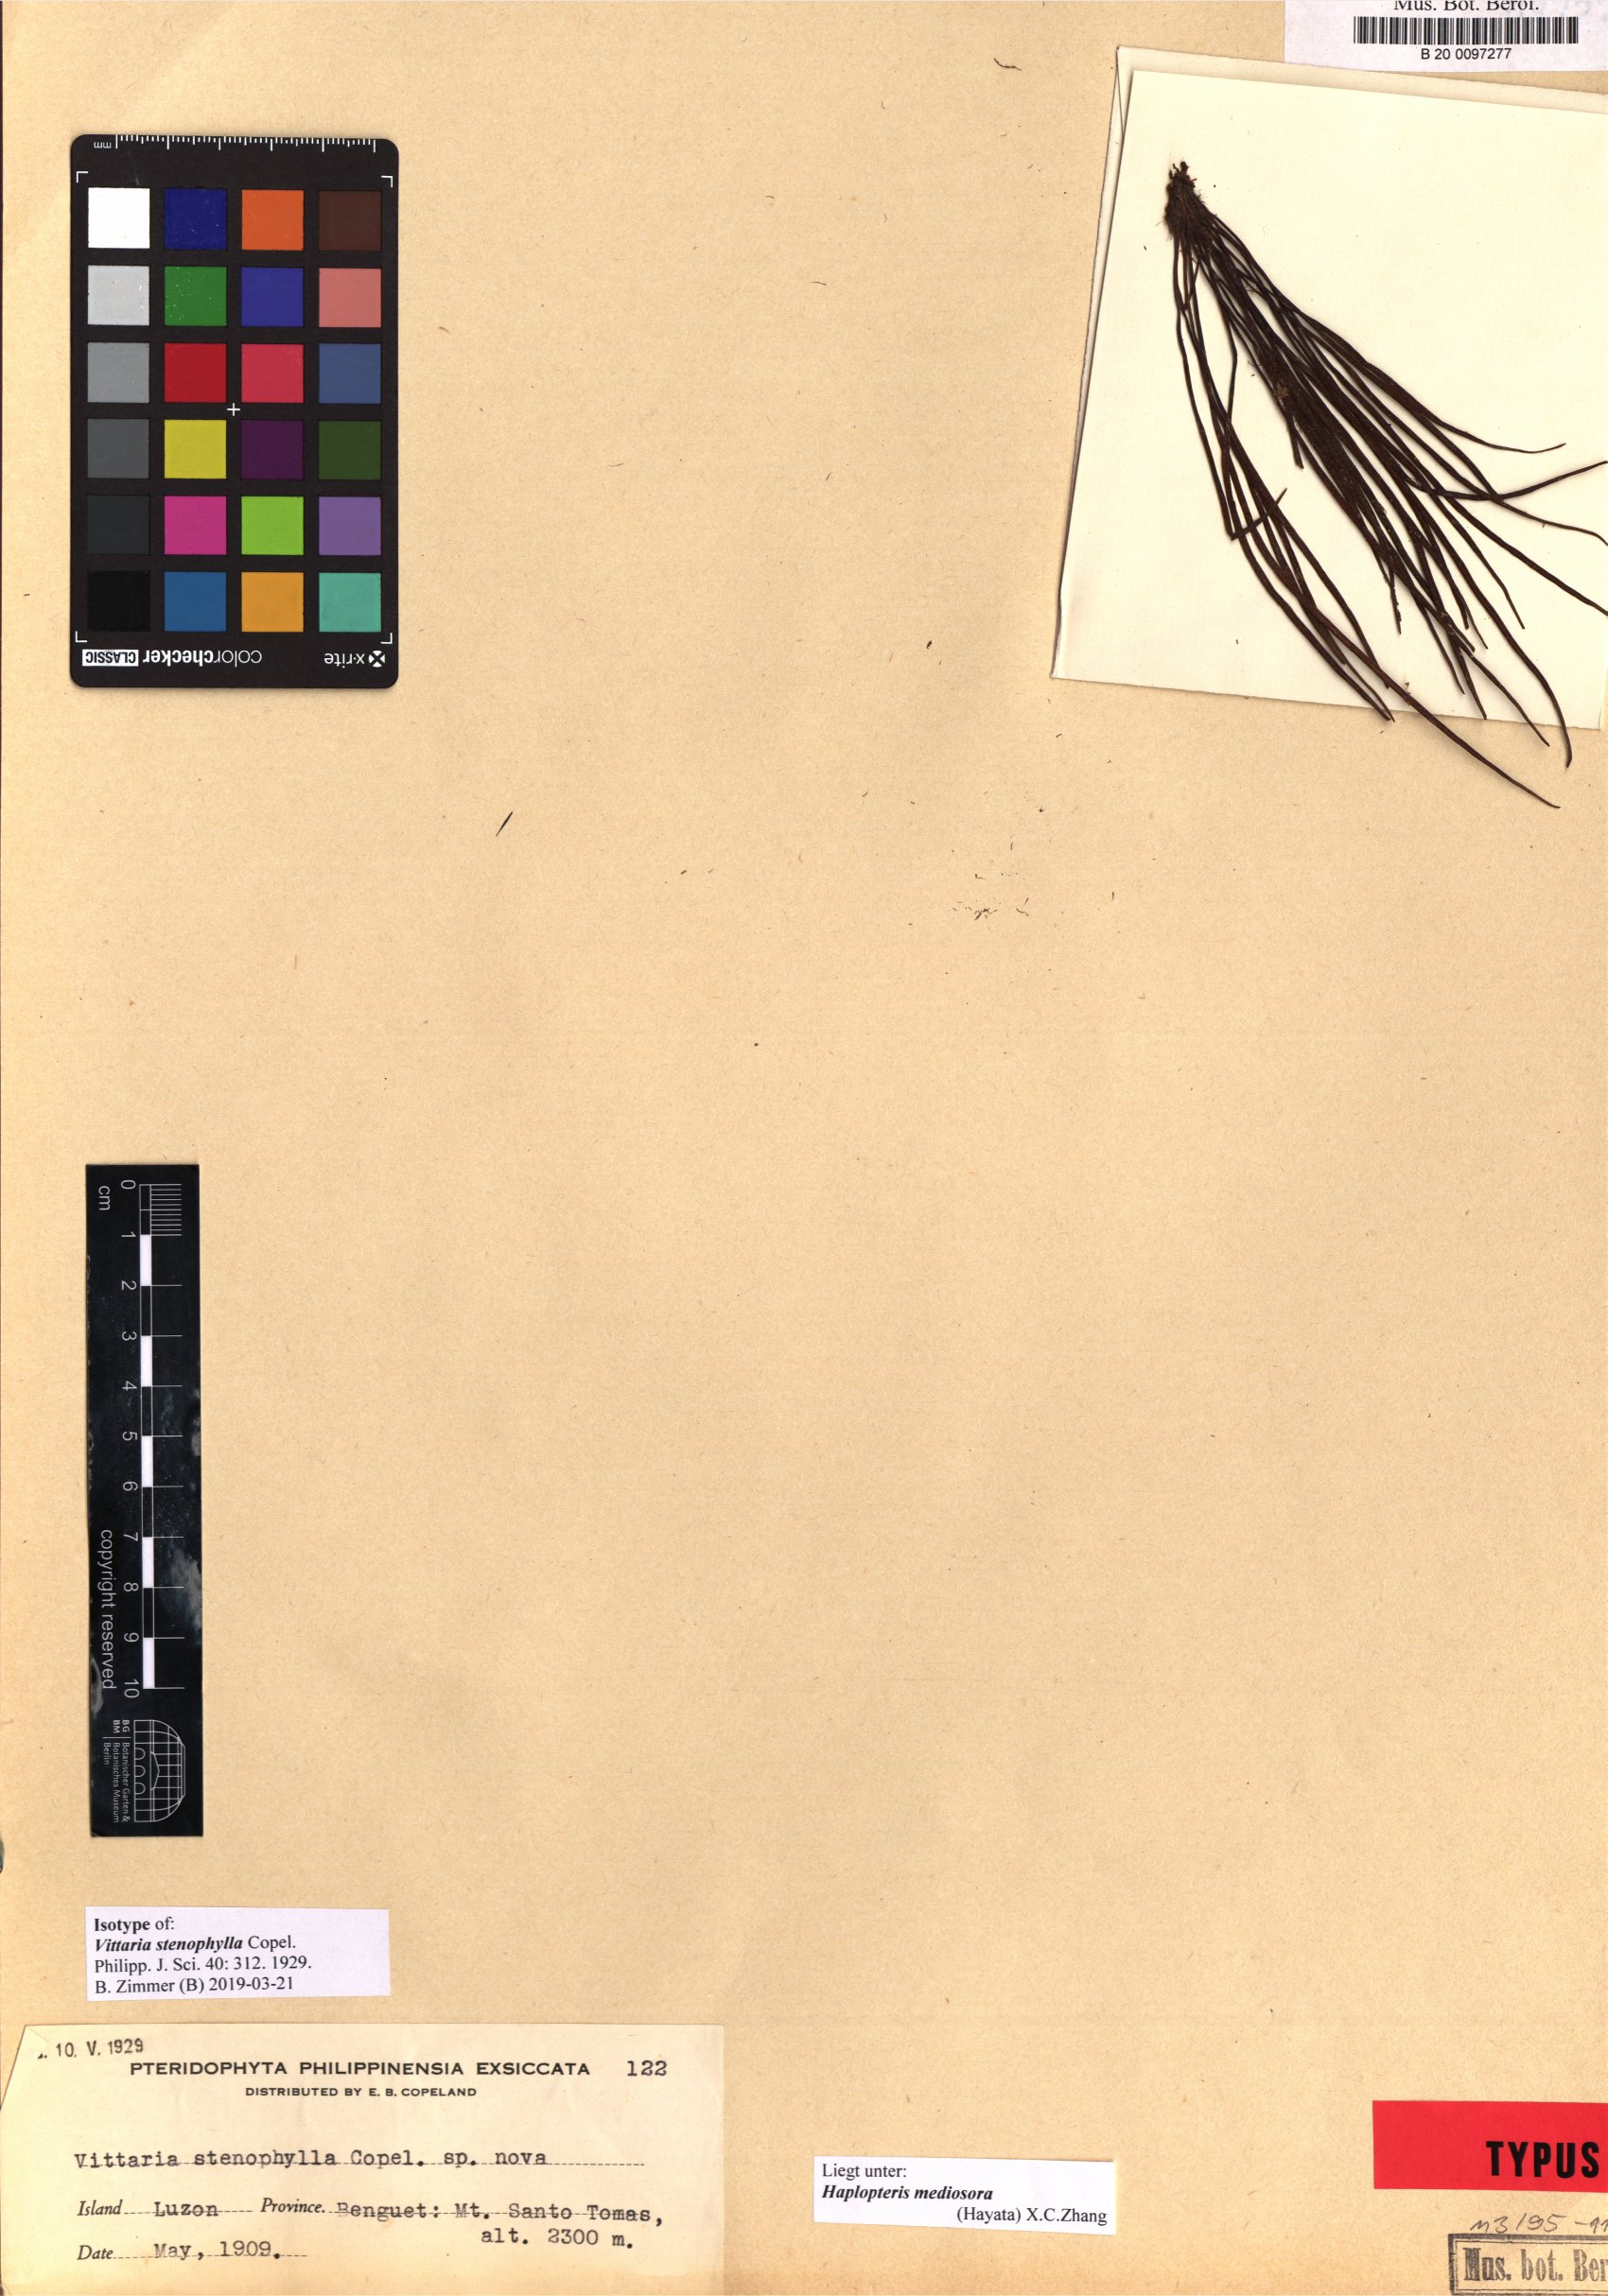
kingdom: Plantae
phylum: Tracheophyta
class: Polypodiopsida
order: Polypodiales
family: Pteridaceae
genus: Haplopteris
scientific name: Haplopteris mediosora
